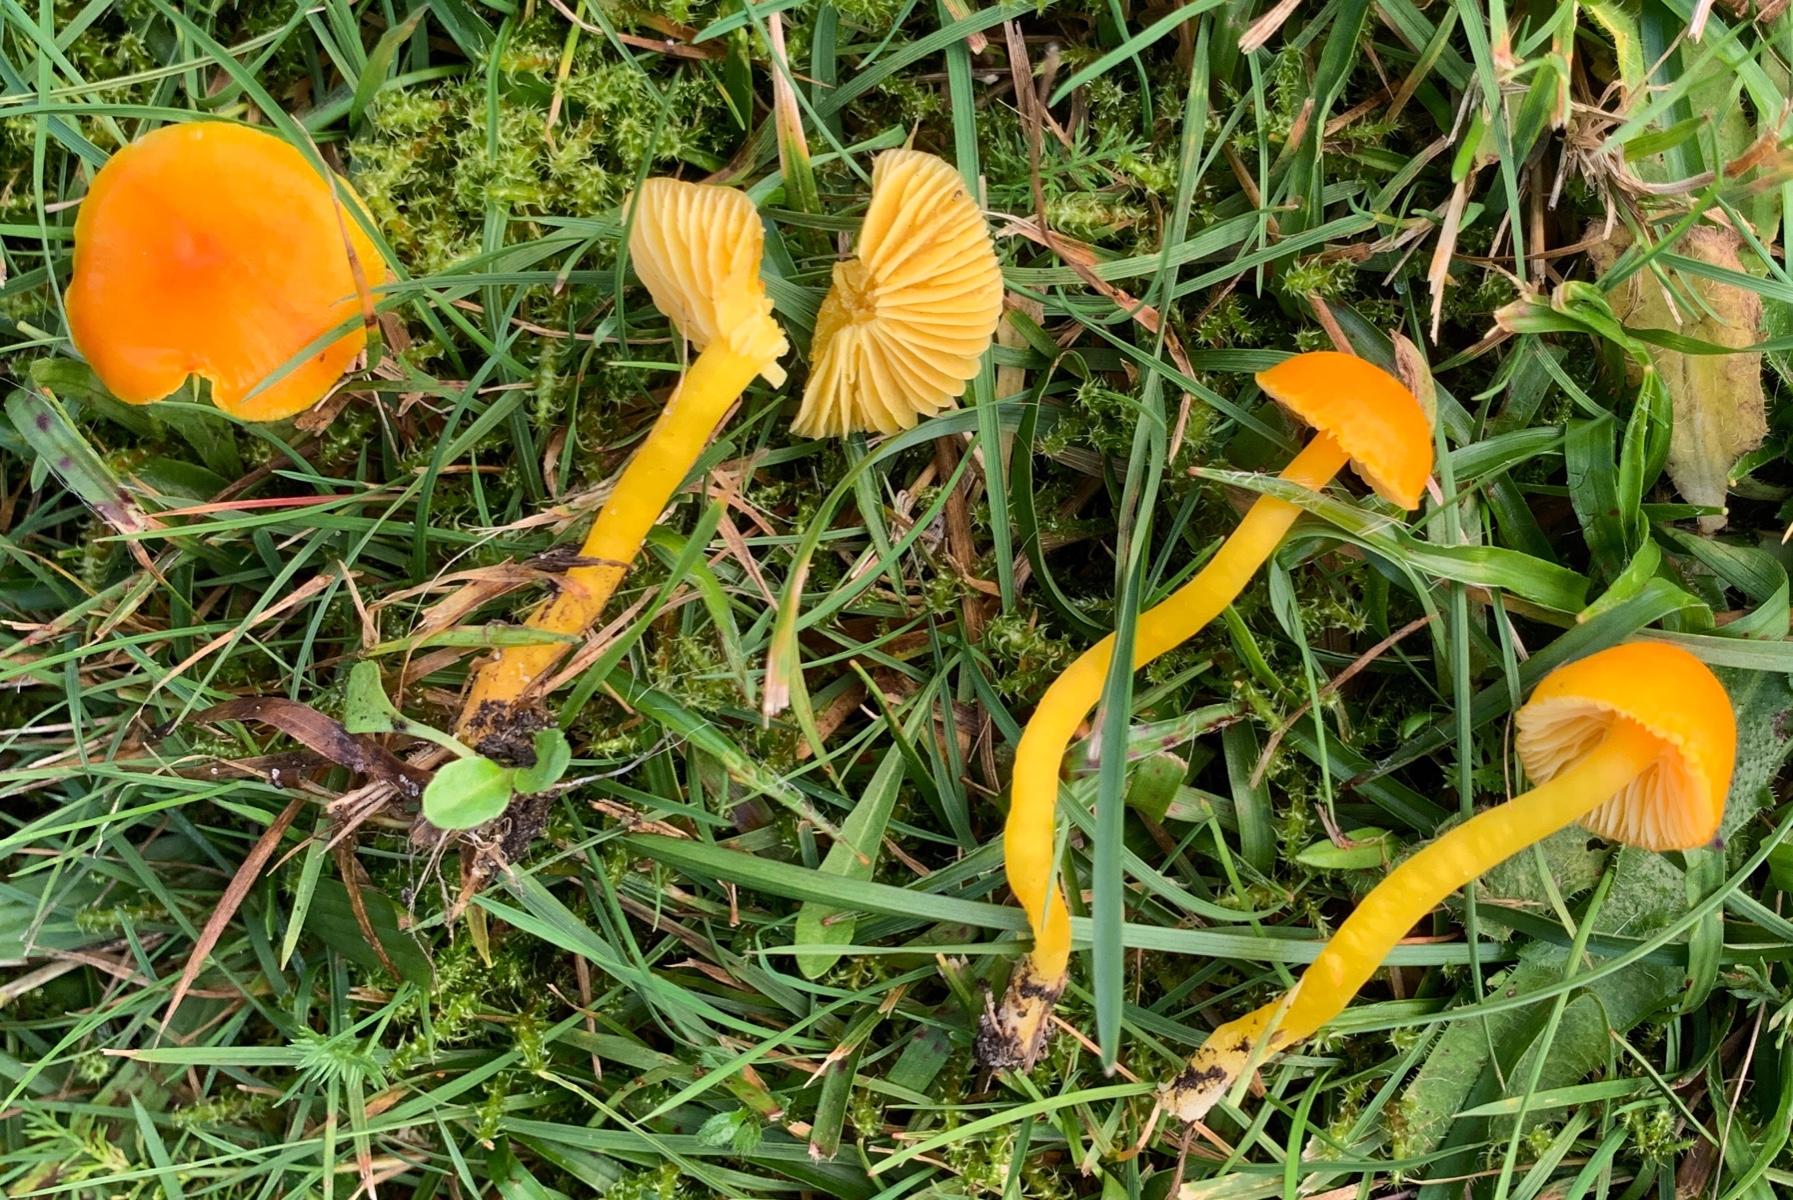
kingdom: Fungi
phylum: Basidiomycota
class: Agaricomycetes
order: Agaricales
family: Hygrophoraceae
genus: Hygrocybe
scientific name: Hygrocybe ceracea
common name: voksgul vokshat
